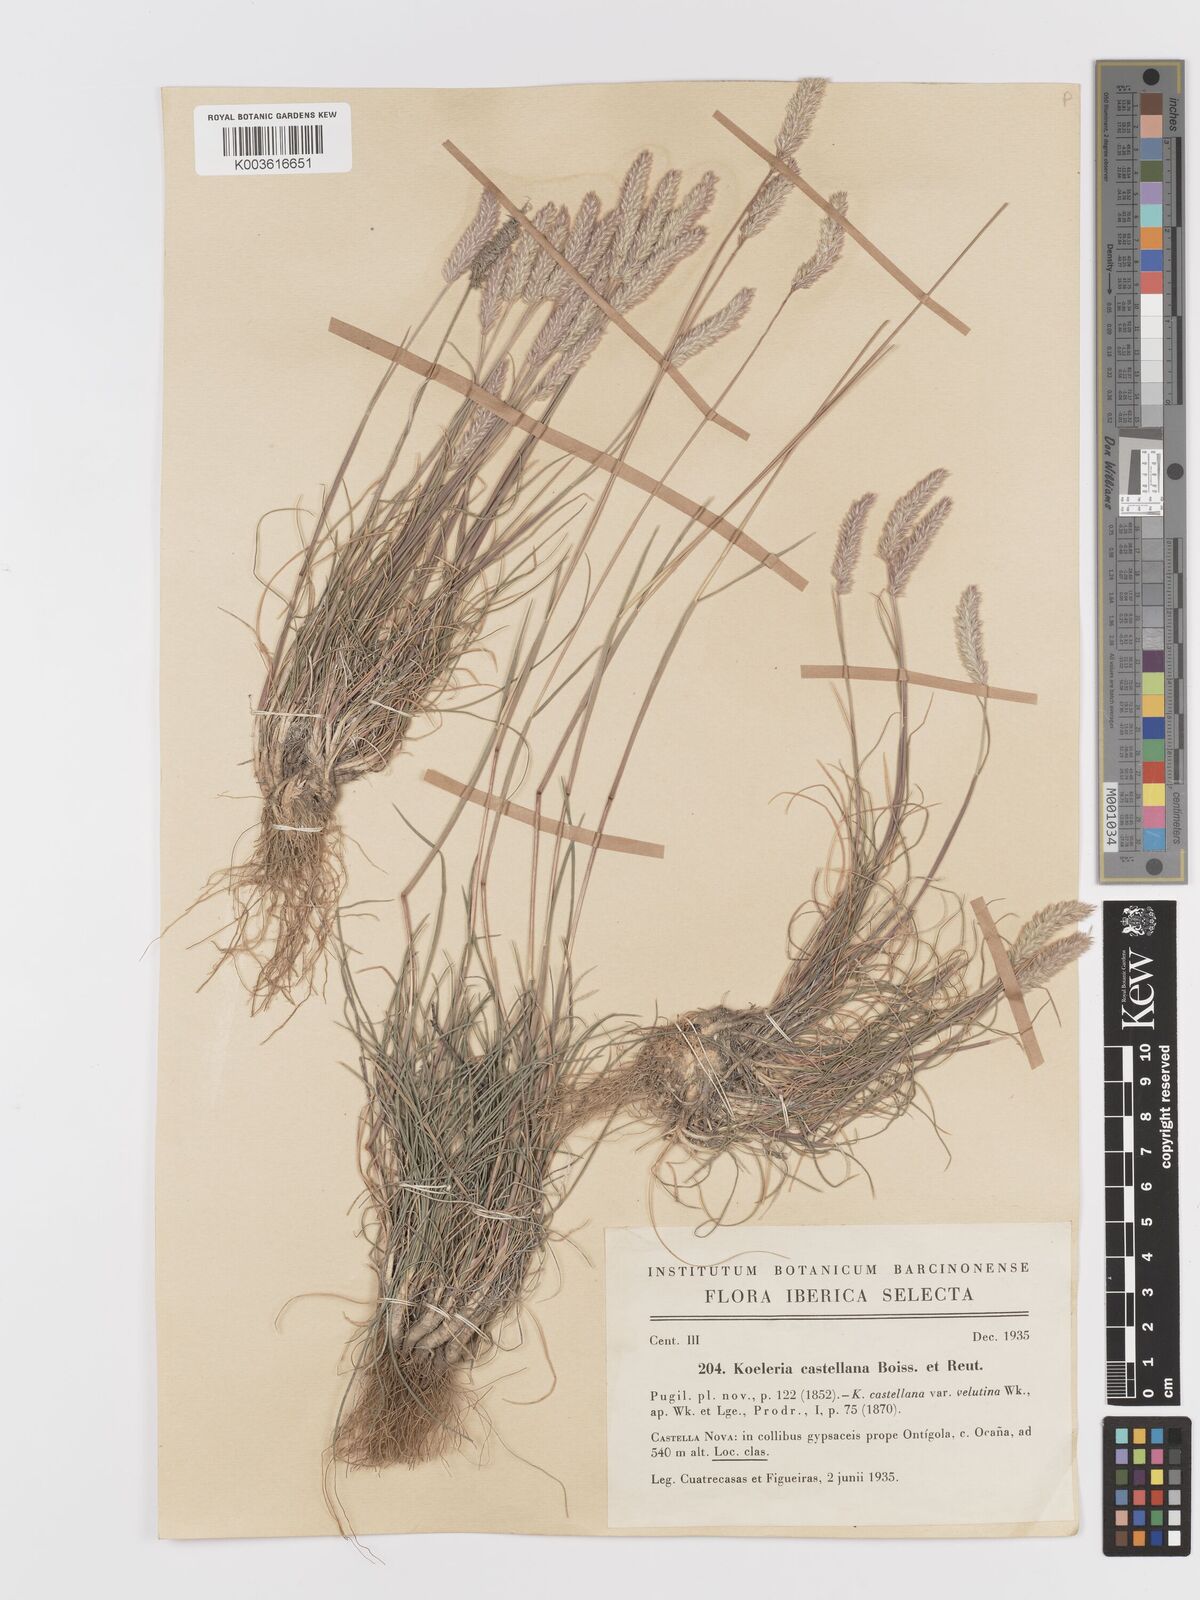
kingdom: Plantae
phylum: Tracheophyta
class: Liliopsida
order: Poales
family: Poaceae
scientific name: Poaceae
